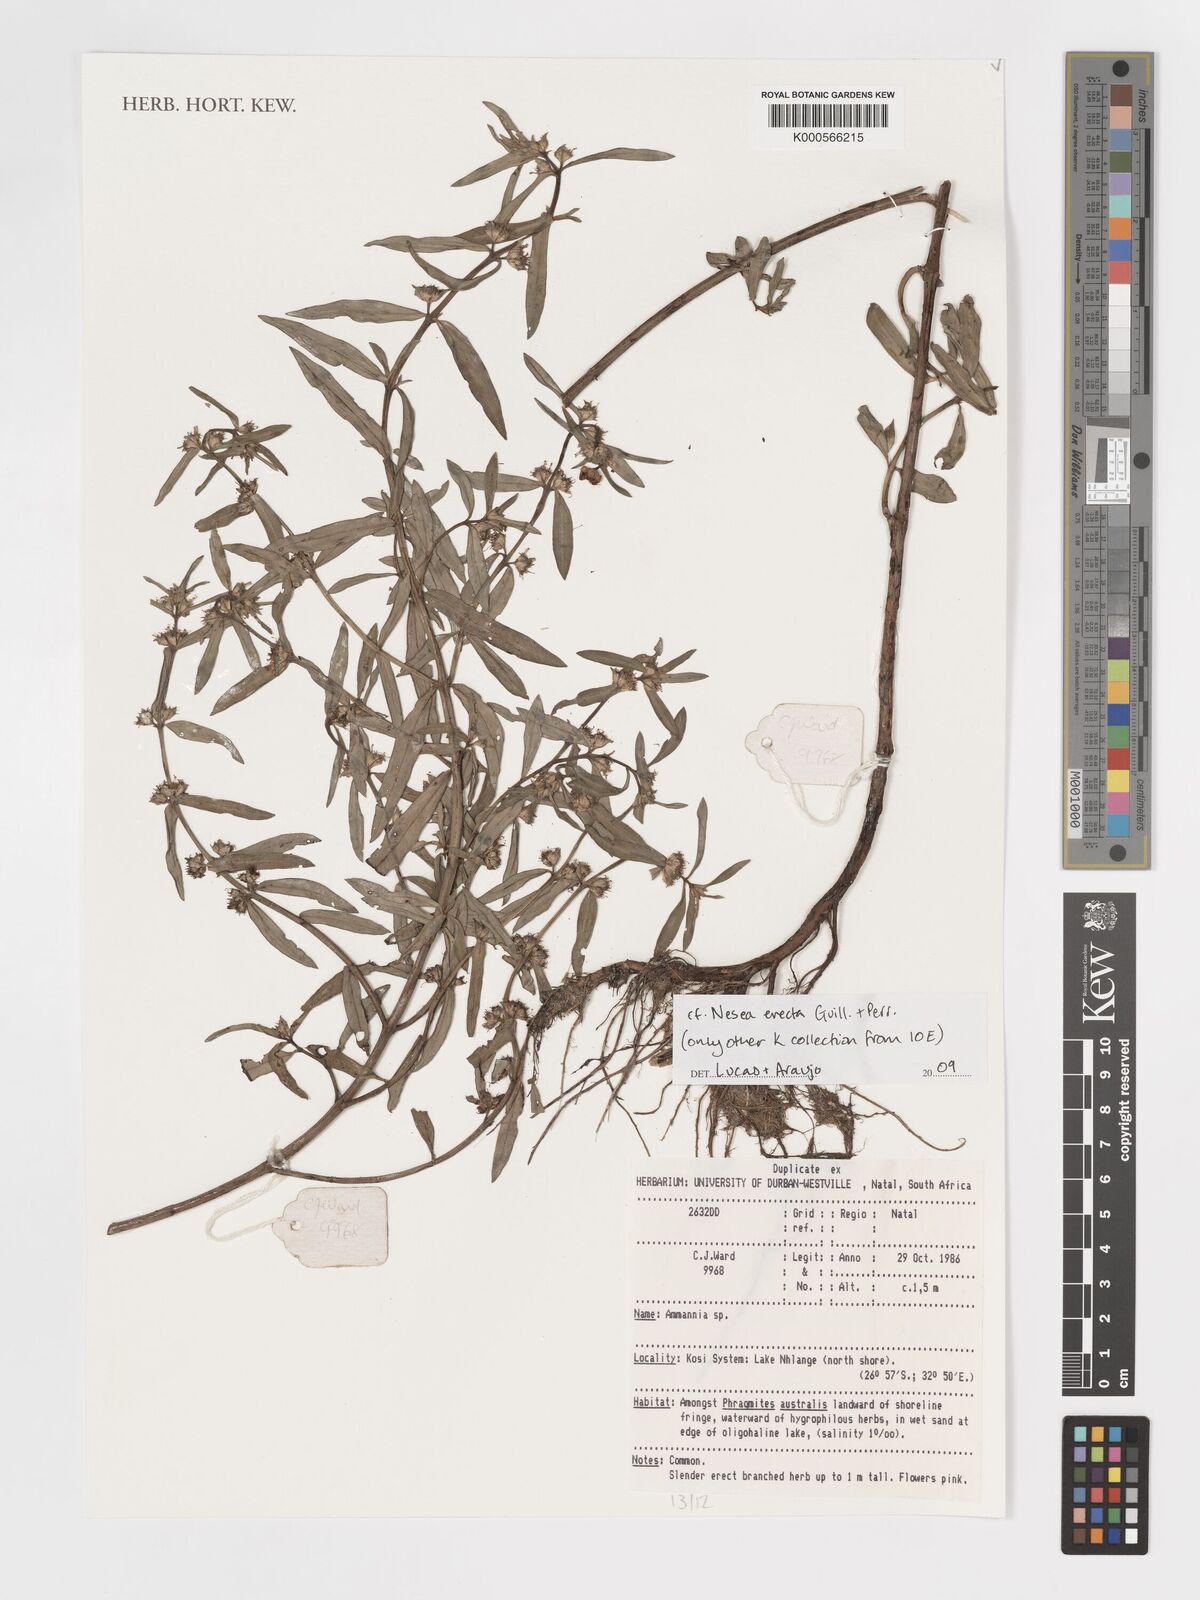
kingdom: Plantae
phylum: Tracheophyta
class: Magnoliopsida
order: Myrtales
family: Lythraceae
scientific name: Lythraceae
